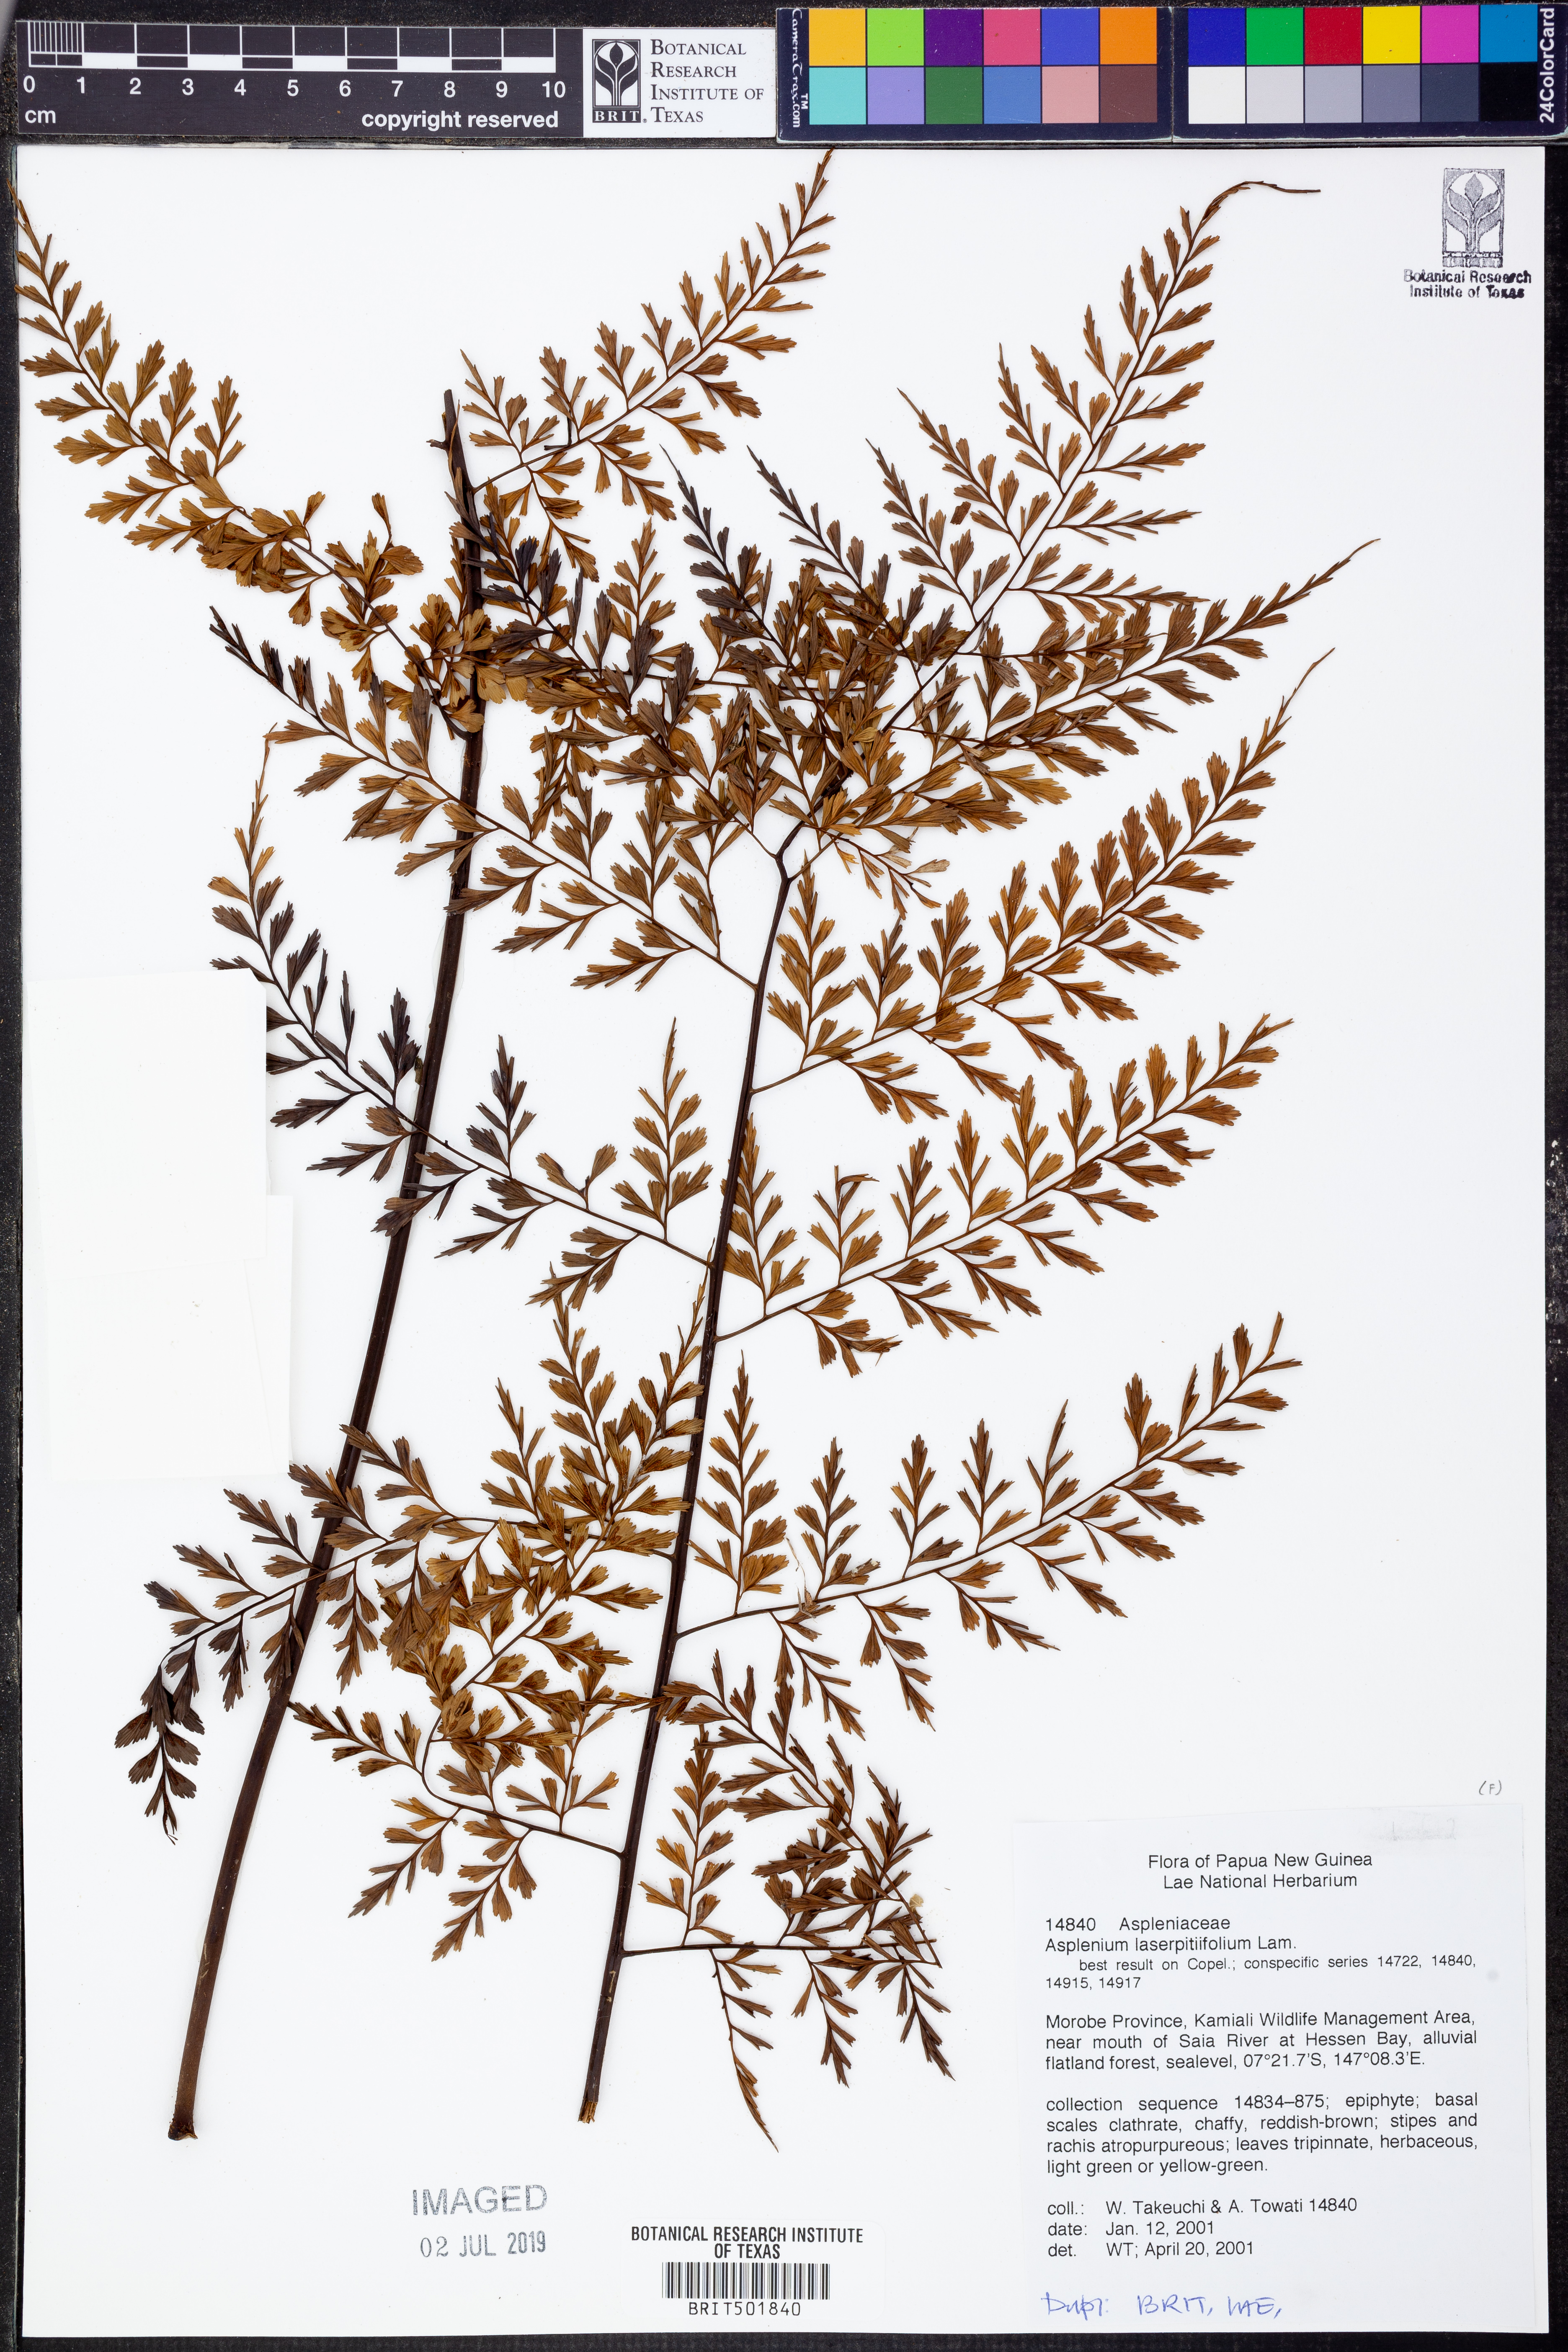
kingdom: Plantae
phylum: Tracheophyta
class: Polypodiopsida
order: Polypodiales
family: Aspleniaceae
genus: Asplenium
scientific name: Asplenium laserpitiifolium
